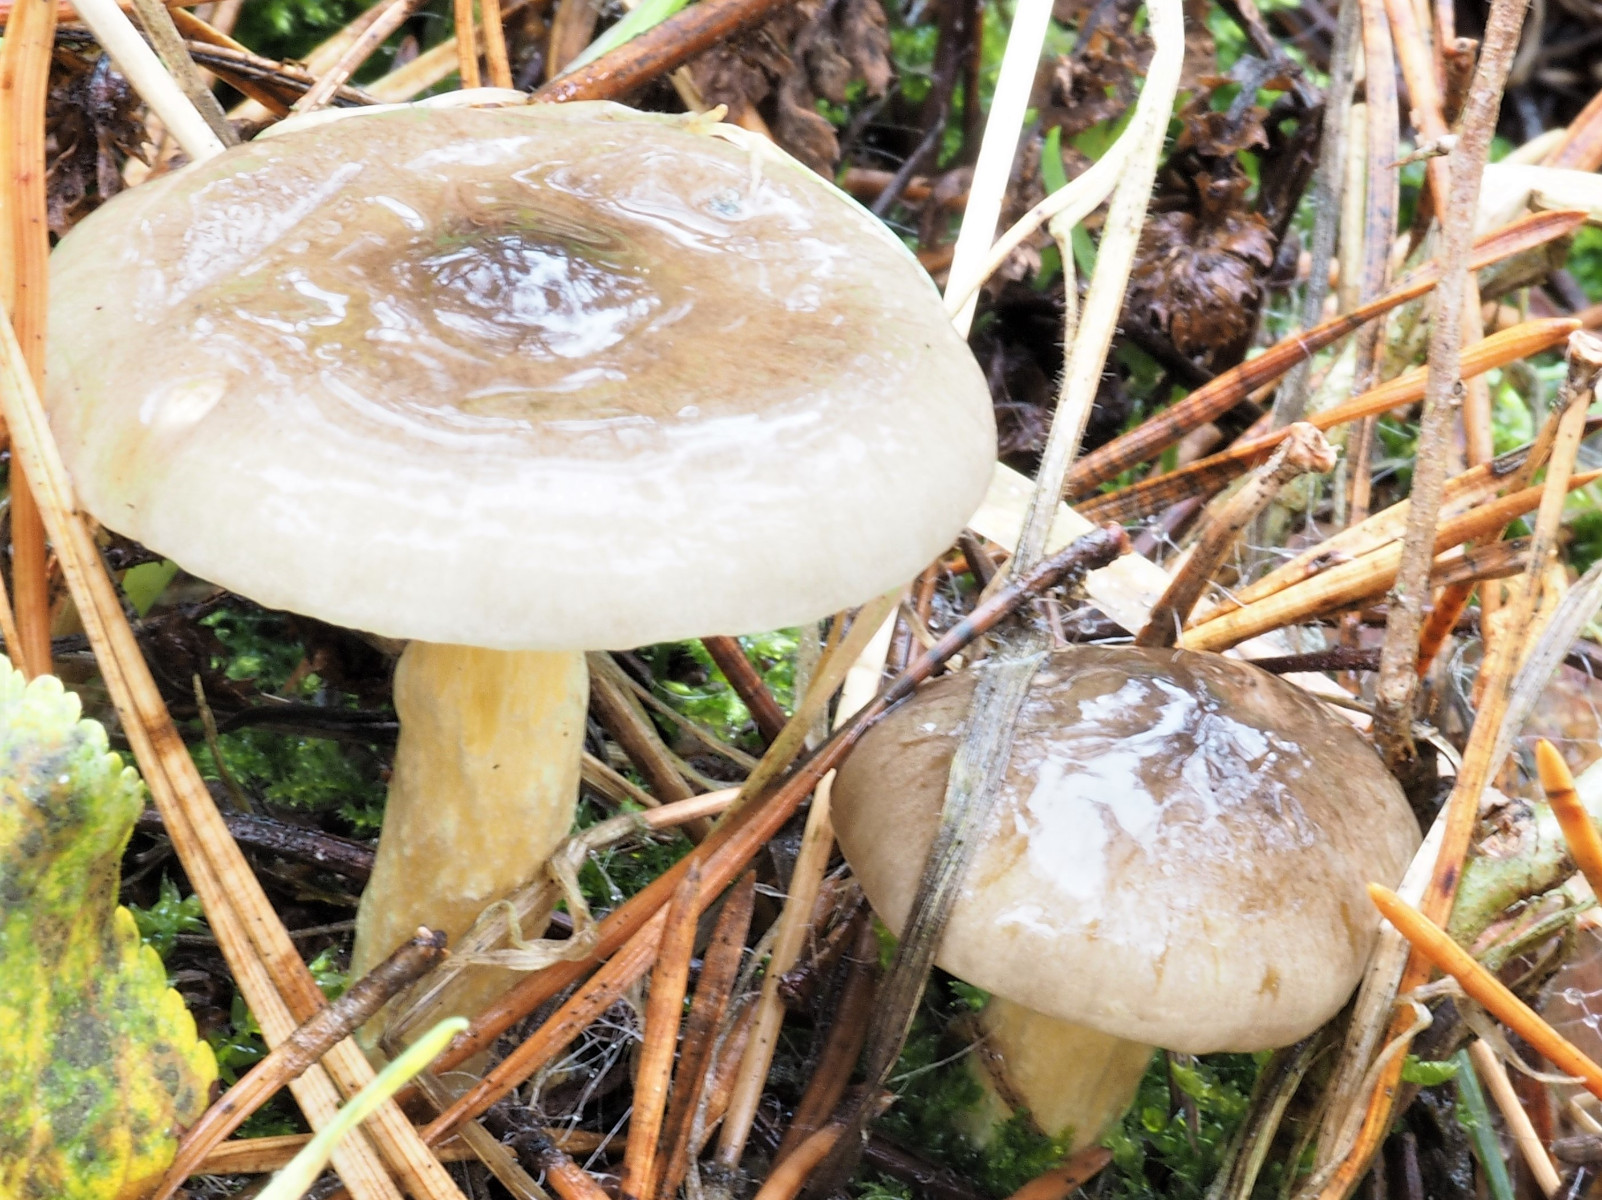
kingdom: Fungi
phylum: Basidiomycota
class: Agaricomycetes
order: Agaricales
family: Hygrophoraceae
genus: Hygrophorus
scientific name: Hygrophorus hypothejus
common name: frost-sneglehat
